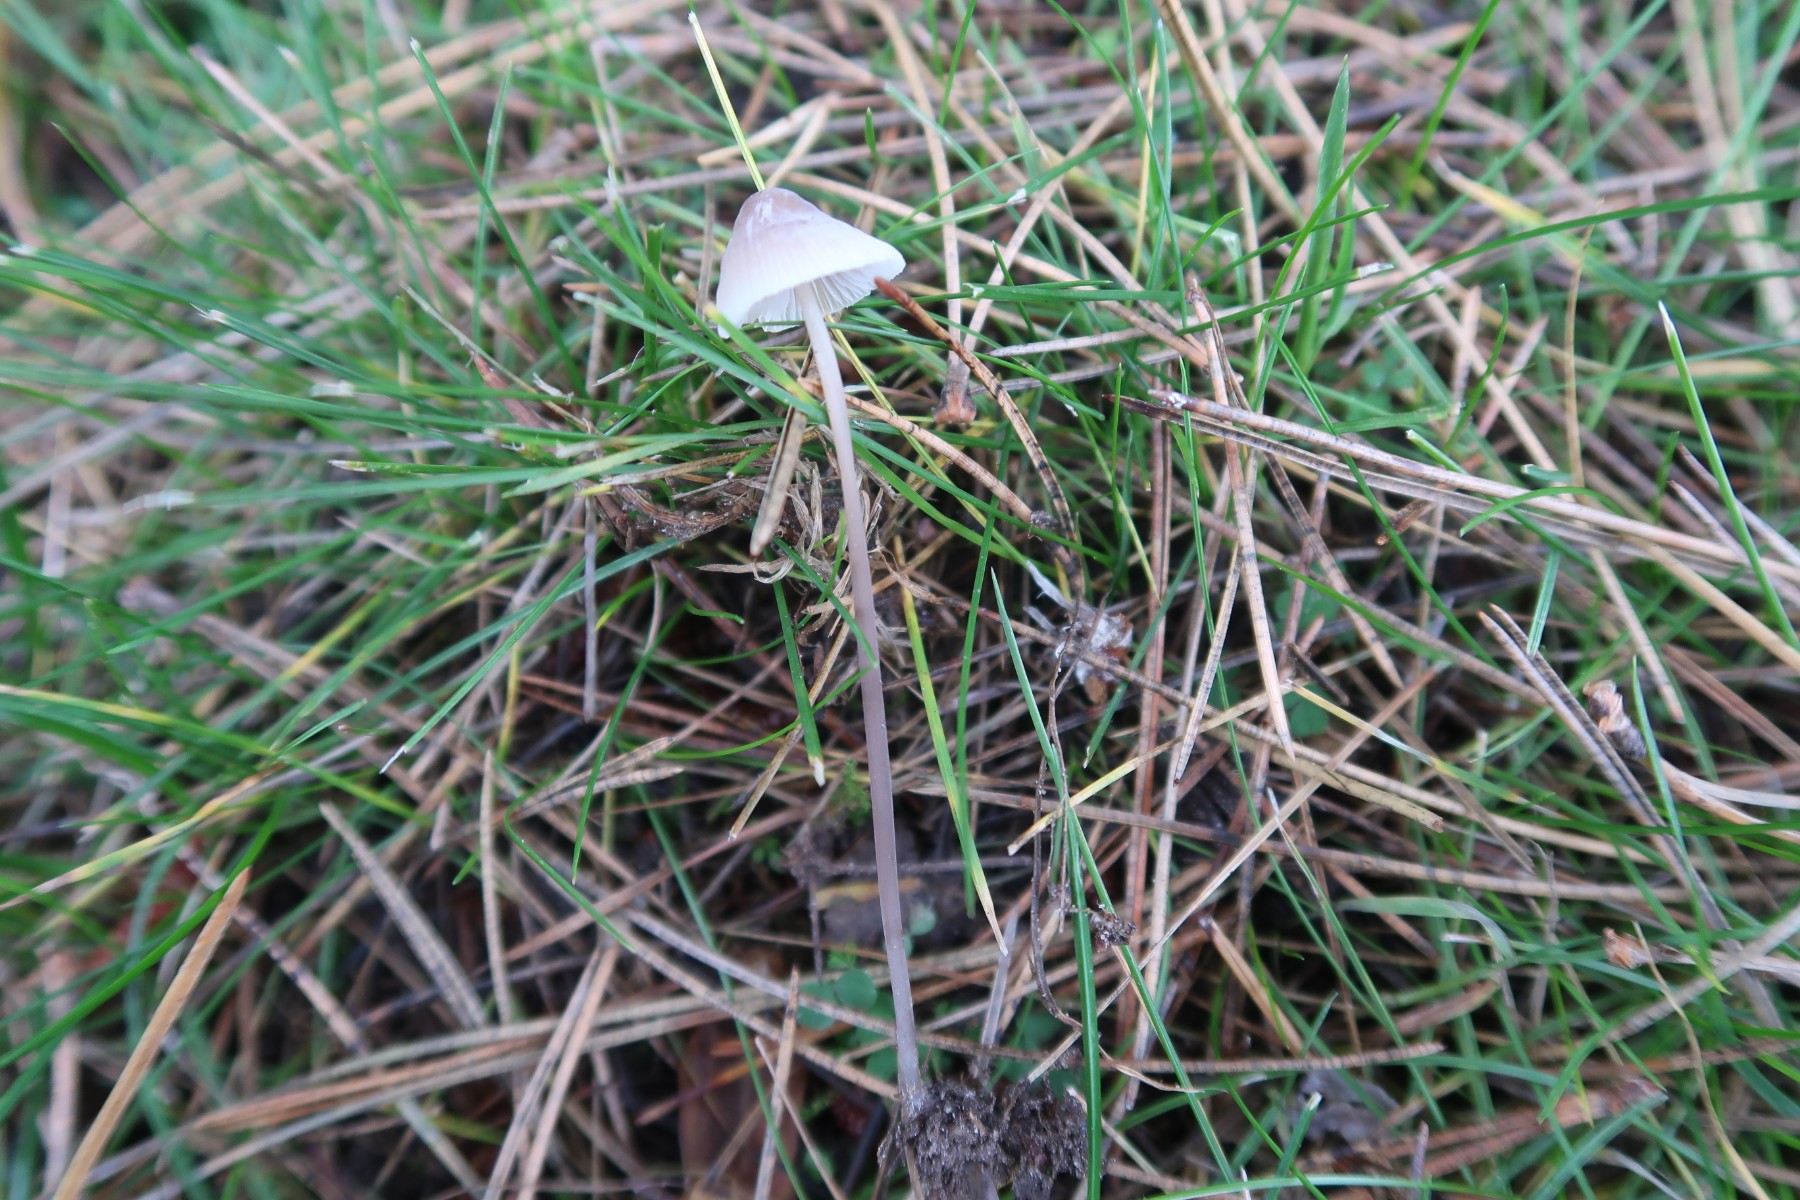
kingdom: Fungi
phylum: Basidiomycota
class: Agaricomycetes
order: Agaricales
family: Mycenaceae
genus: Mycena
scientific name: Mycena filopes
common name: jod-huesvamp
